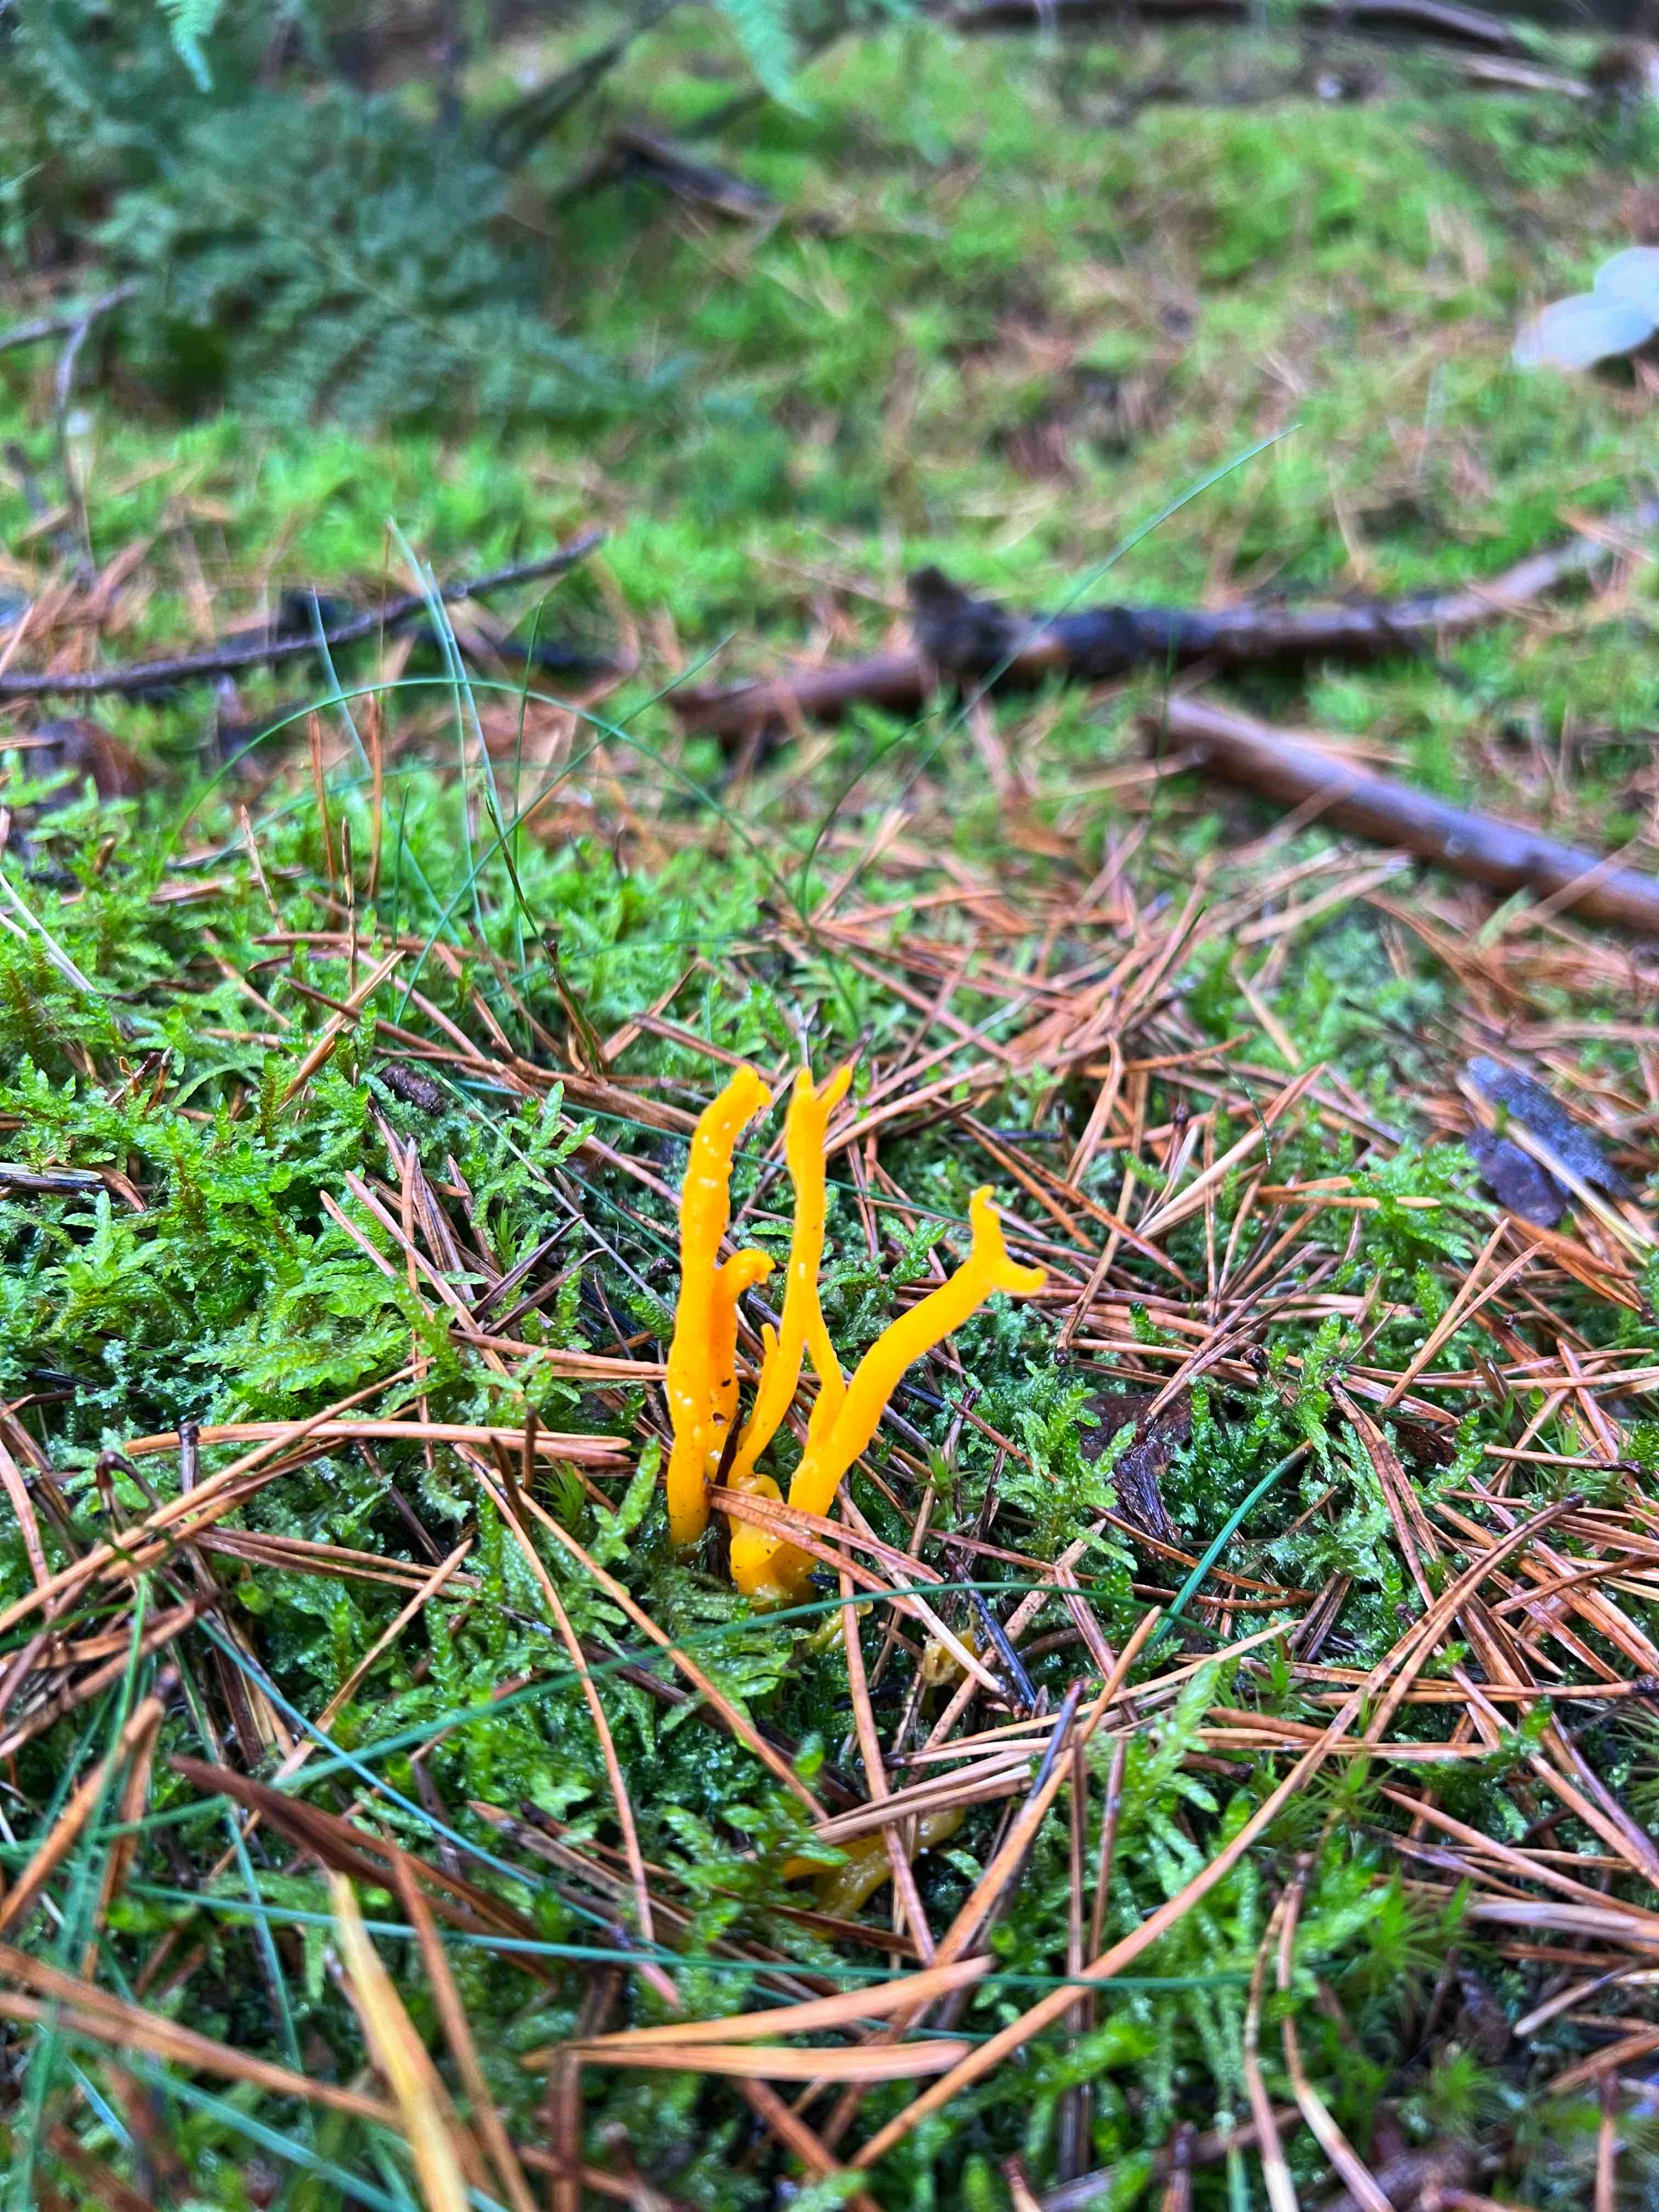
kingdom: Fungi
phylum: Basidiomycota
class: Dacrymycetes
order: Dacrymycetales
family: Dacrymycetaceae
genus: Calocera
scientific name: Calocera viscosa
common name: almindelig guldgaffel
